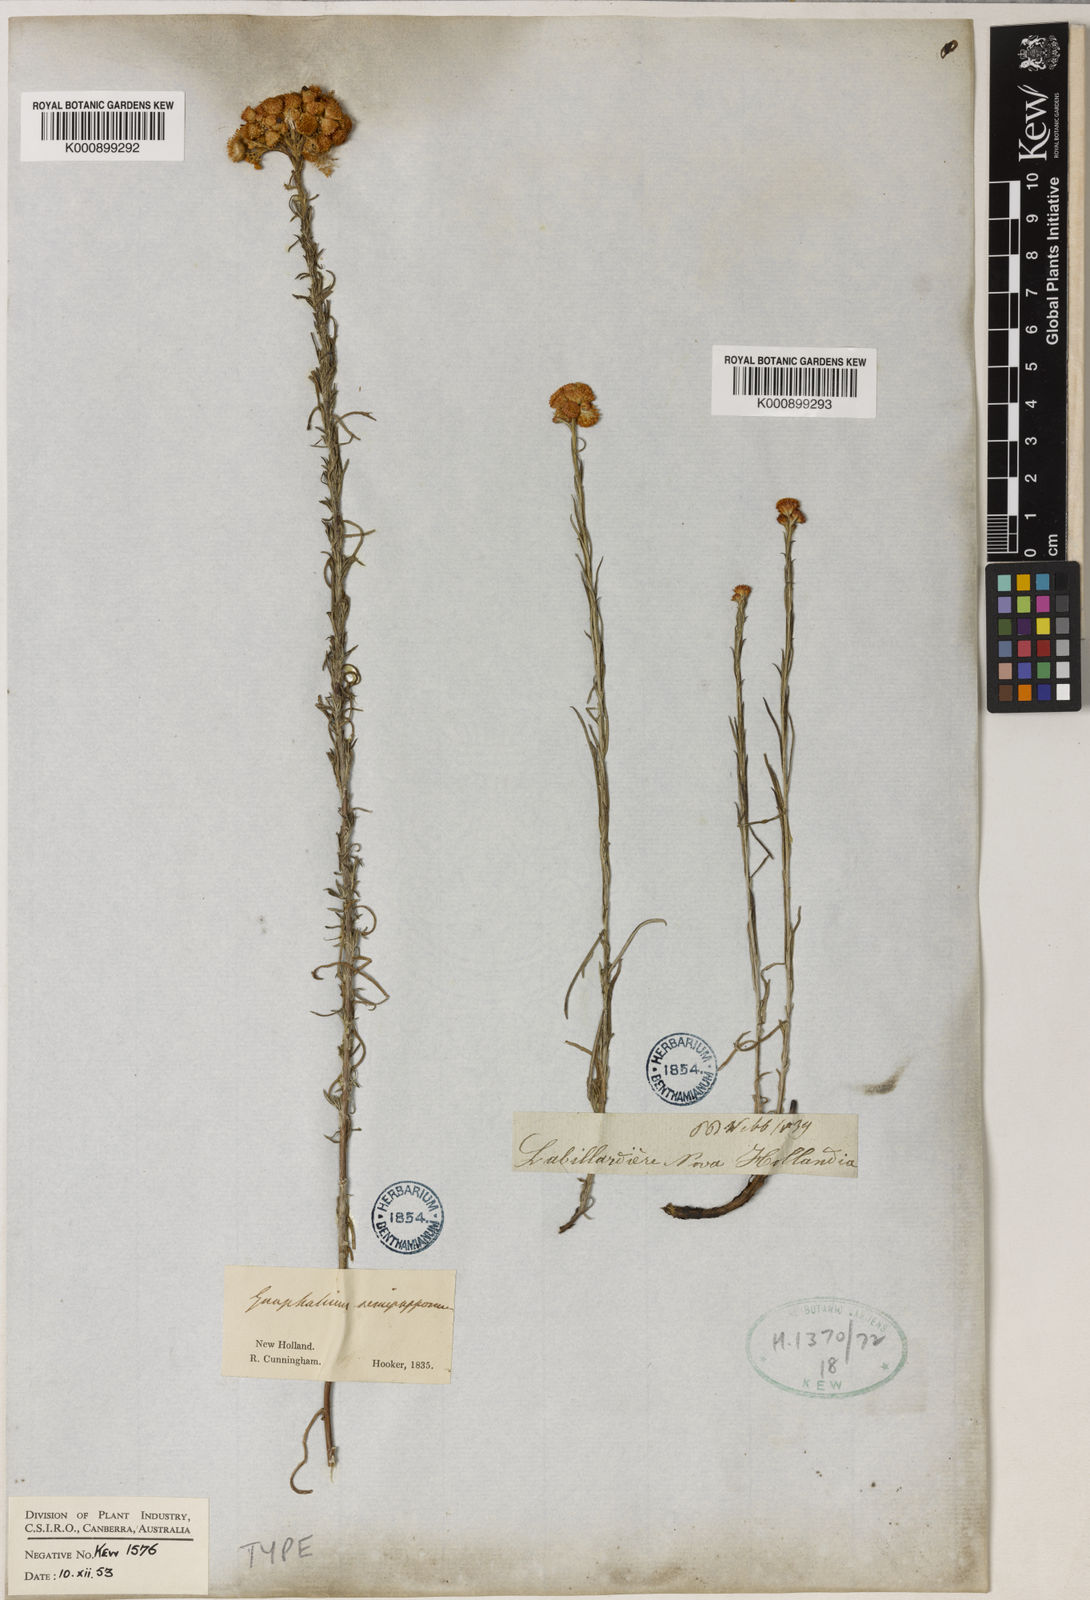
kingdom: Plantae
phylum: Tracheophyta
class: Magnoliopsida
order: Asterales
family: Asteraceae
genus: Chrysocephalum
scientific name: Chrysocephalum semipapposum
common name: Clustered everlasting
